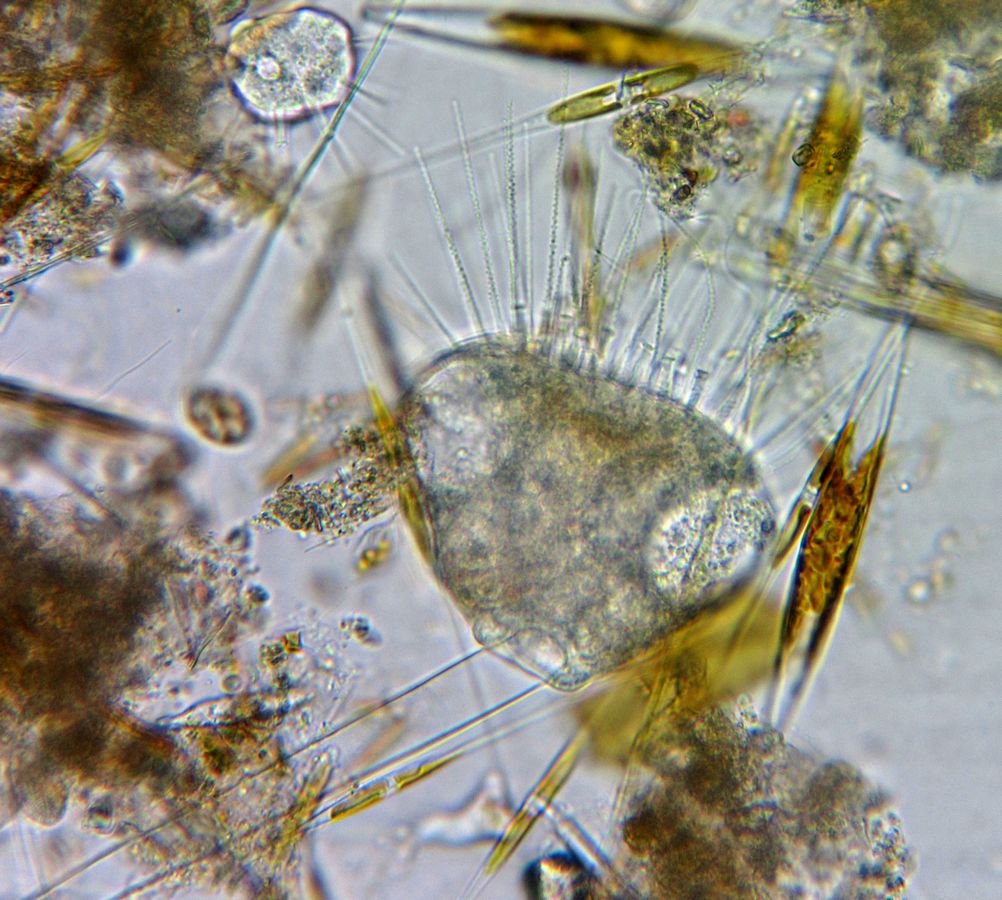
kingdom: Chromista
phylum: Ciliophora
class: Phyllopharyngea
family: Ephelotidae
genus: Ephelota
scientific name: Ephelota gemmipara
